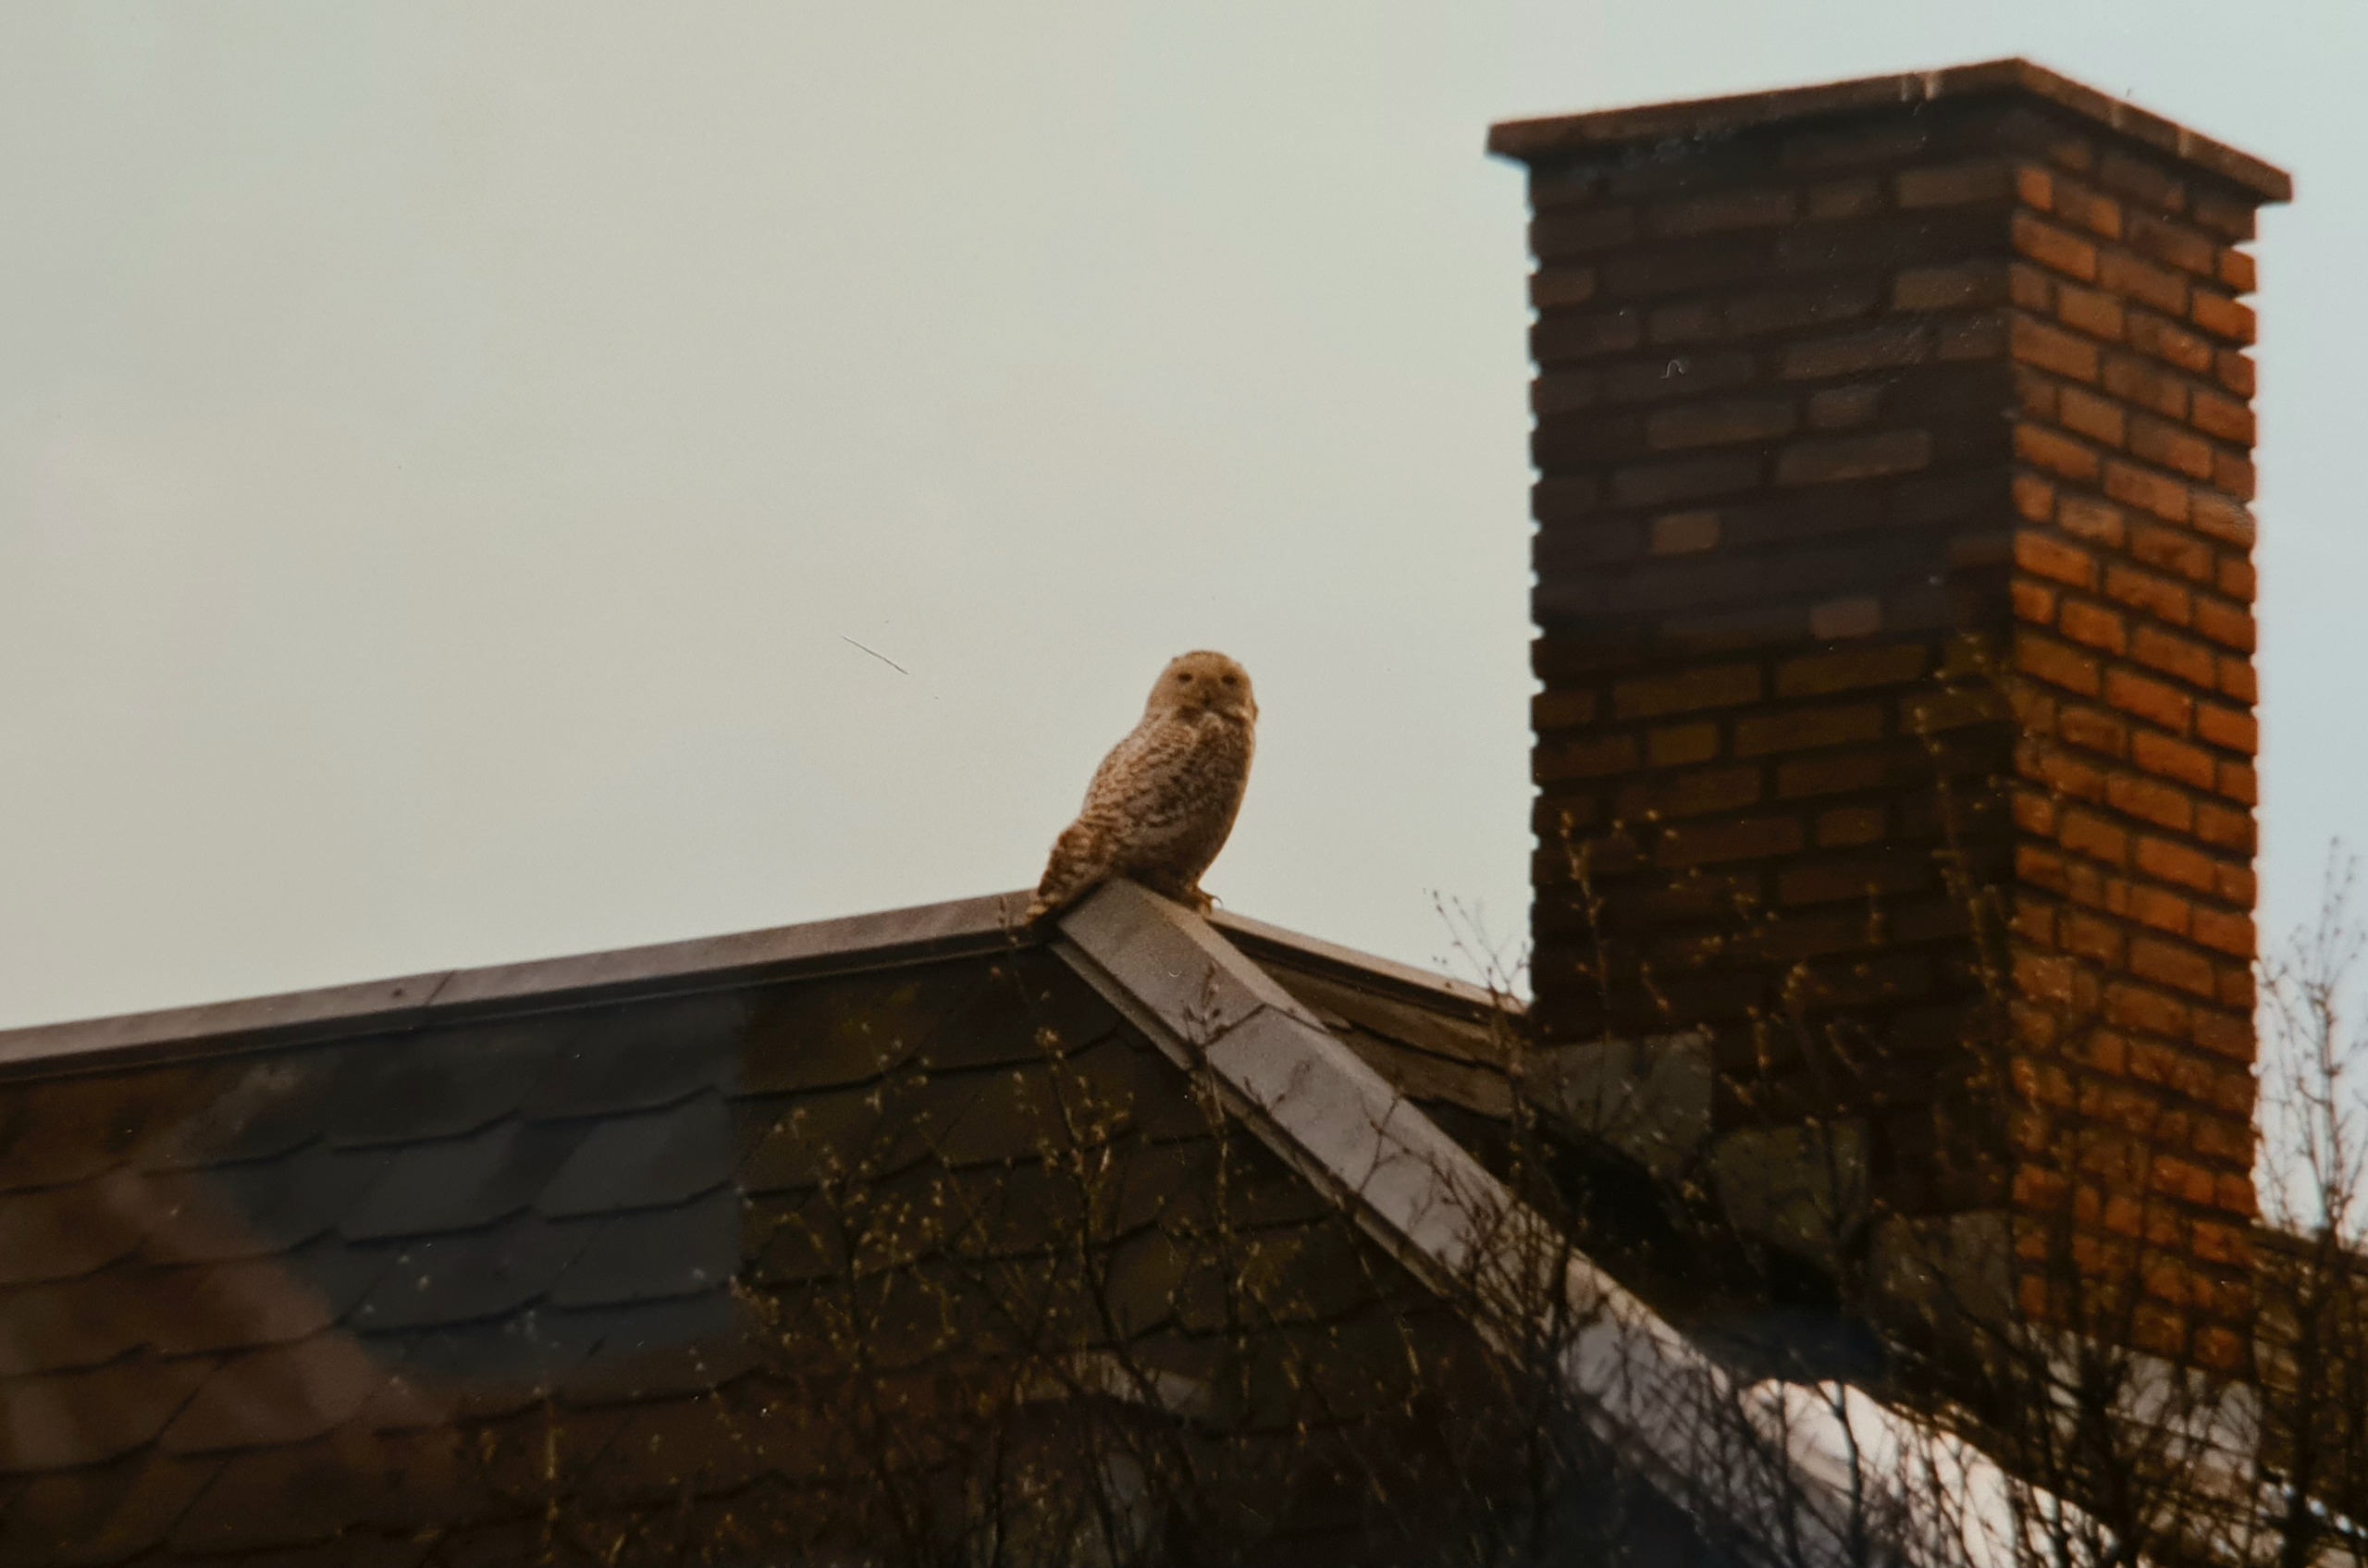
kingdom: Animalia
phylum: Chordata
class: Aves
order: Strigiformes
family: Strigidae
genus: Bubo
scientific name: Bubo scandiacus
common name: Sneugle
